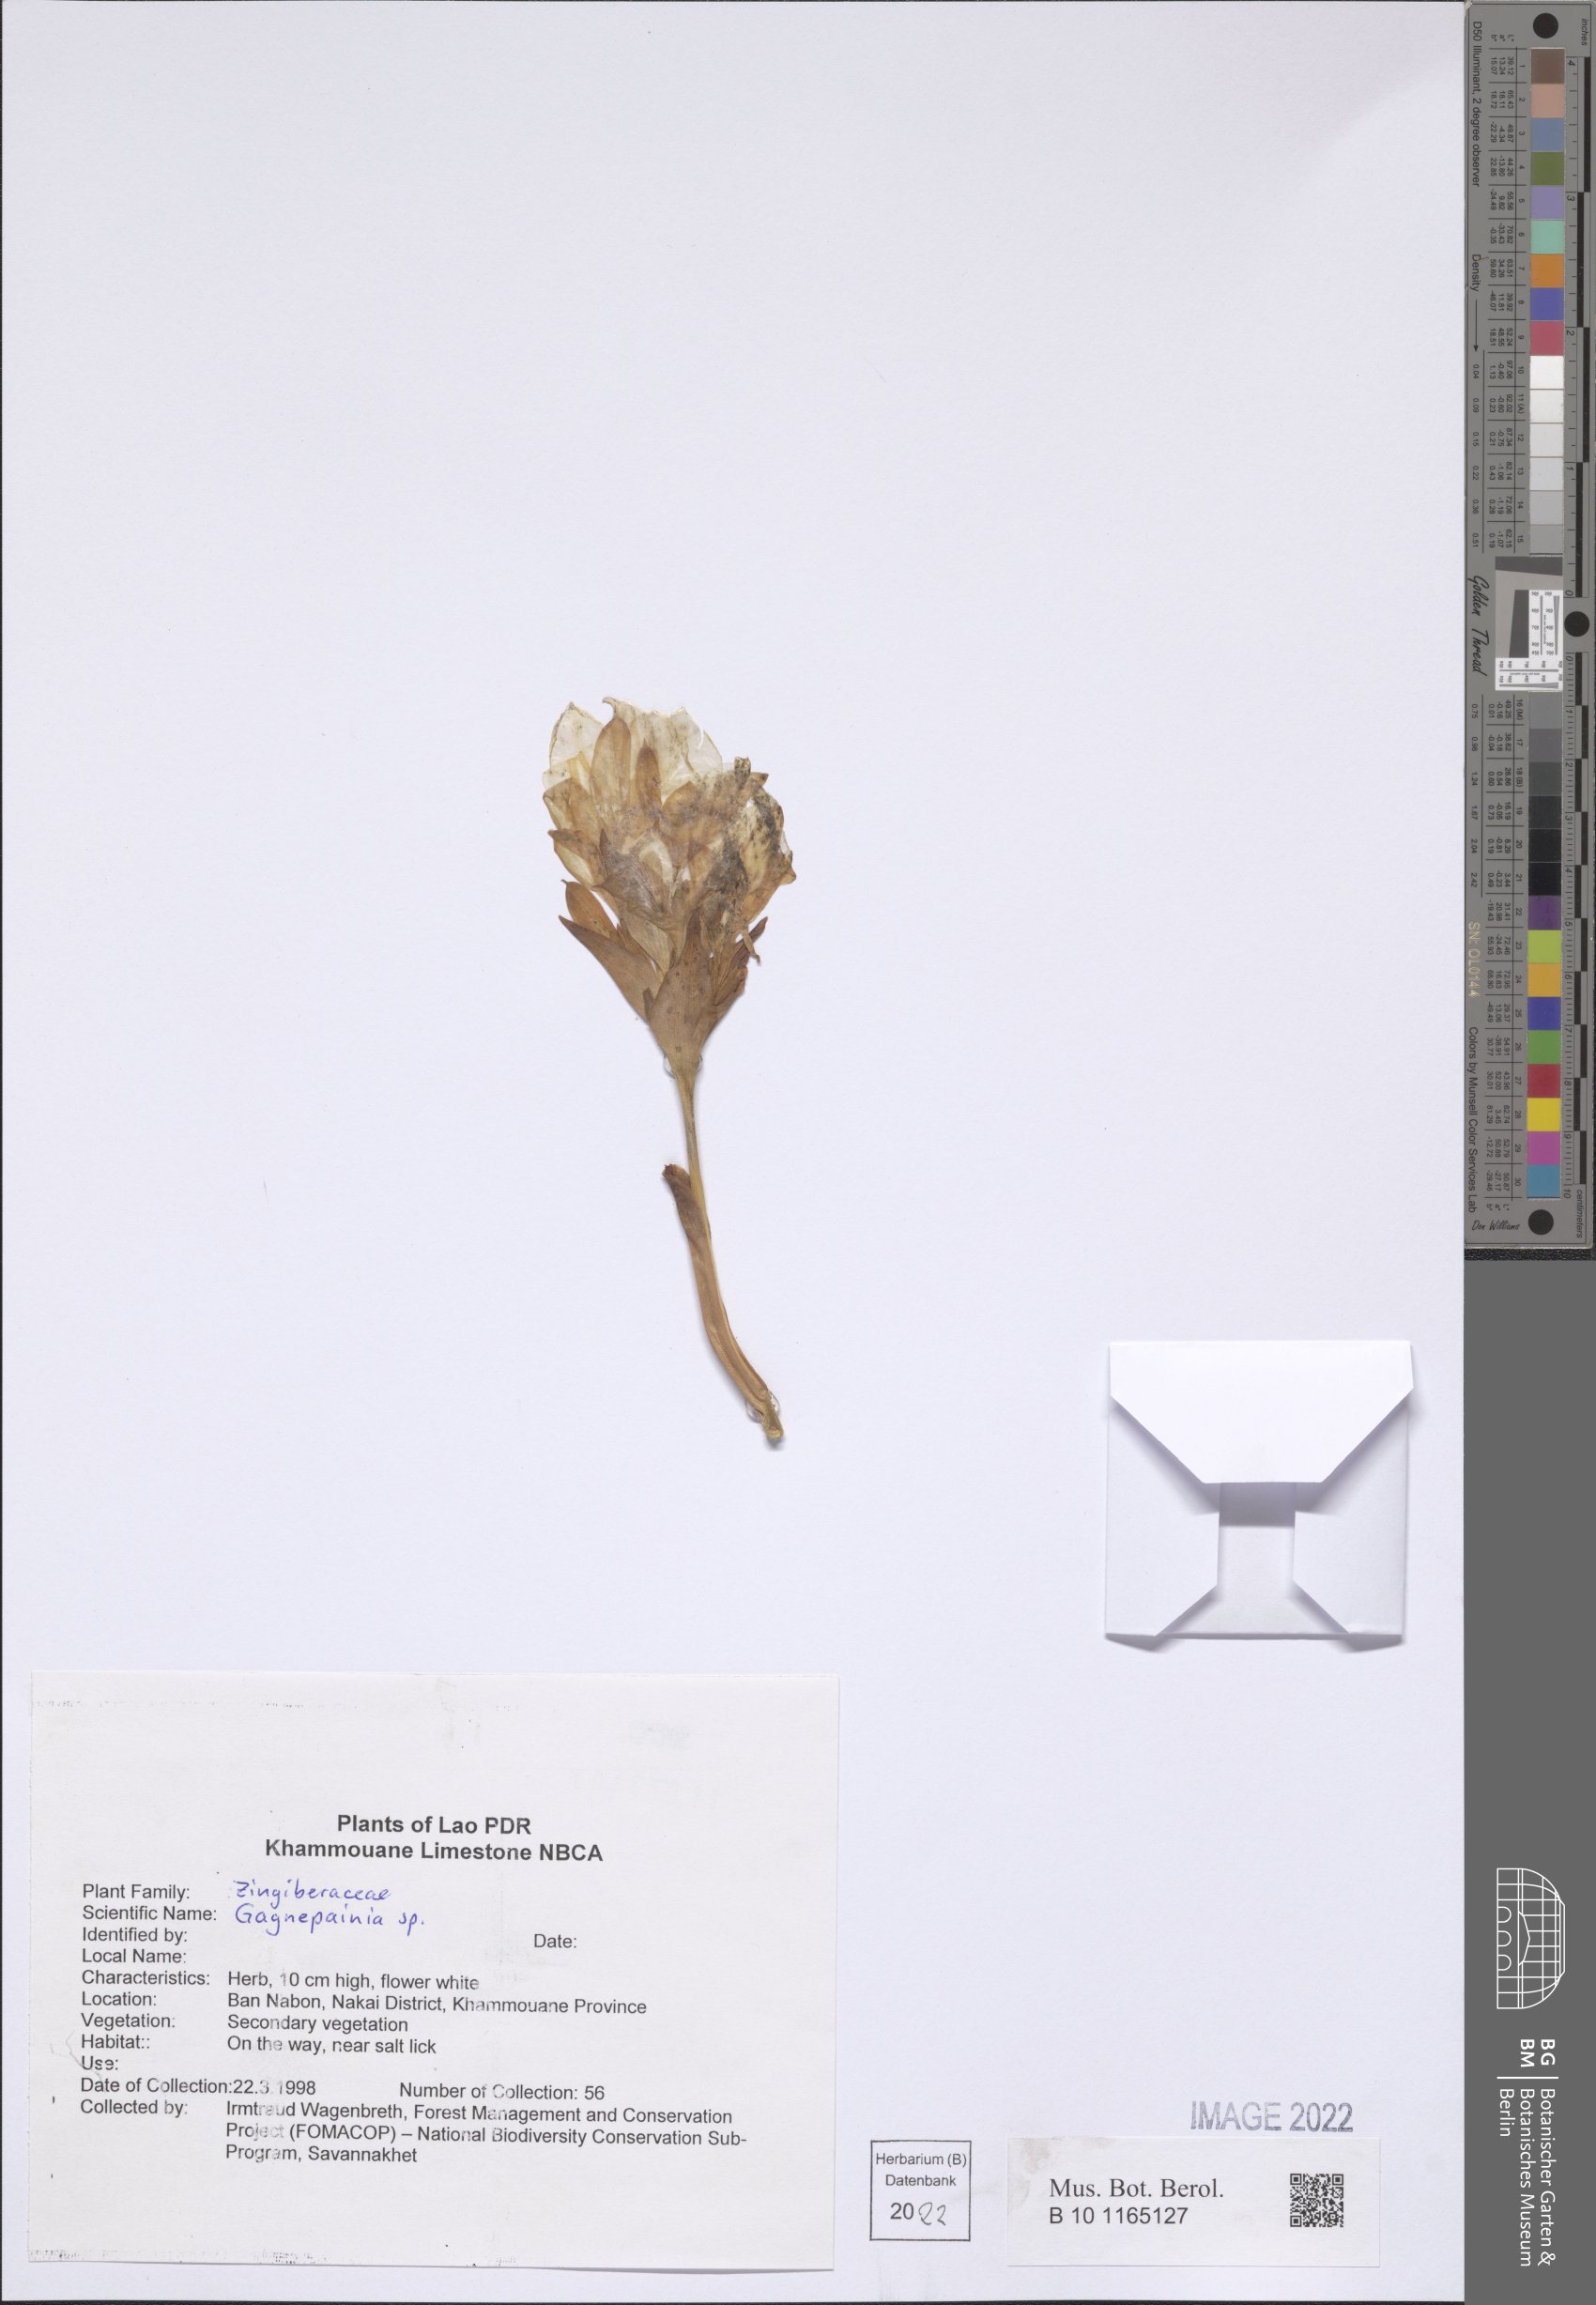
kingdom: Plantae
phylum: Tracheophyta
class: Liliopsida
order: Zingiberales
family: Zingiberaceae
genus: Gagnepainia
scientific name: Gagnepainia
